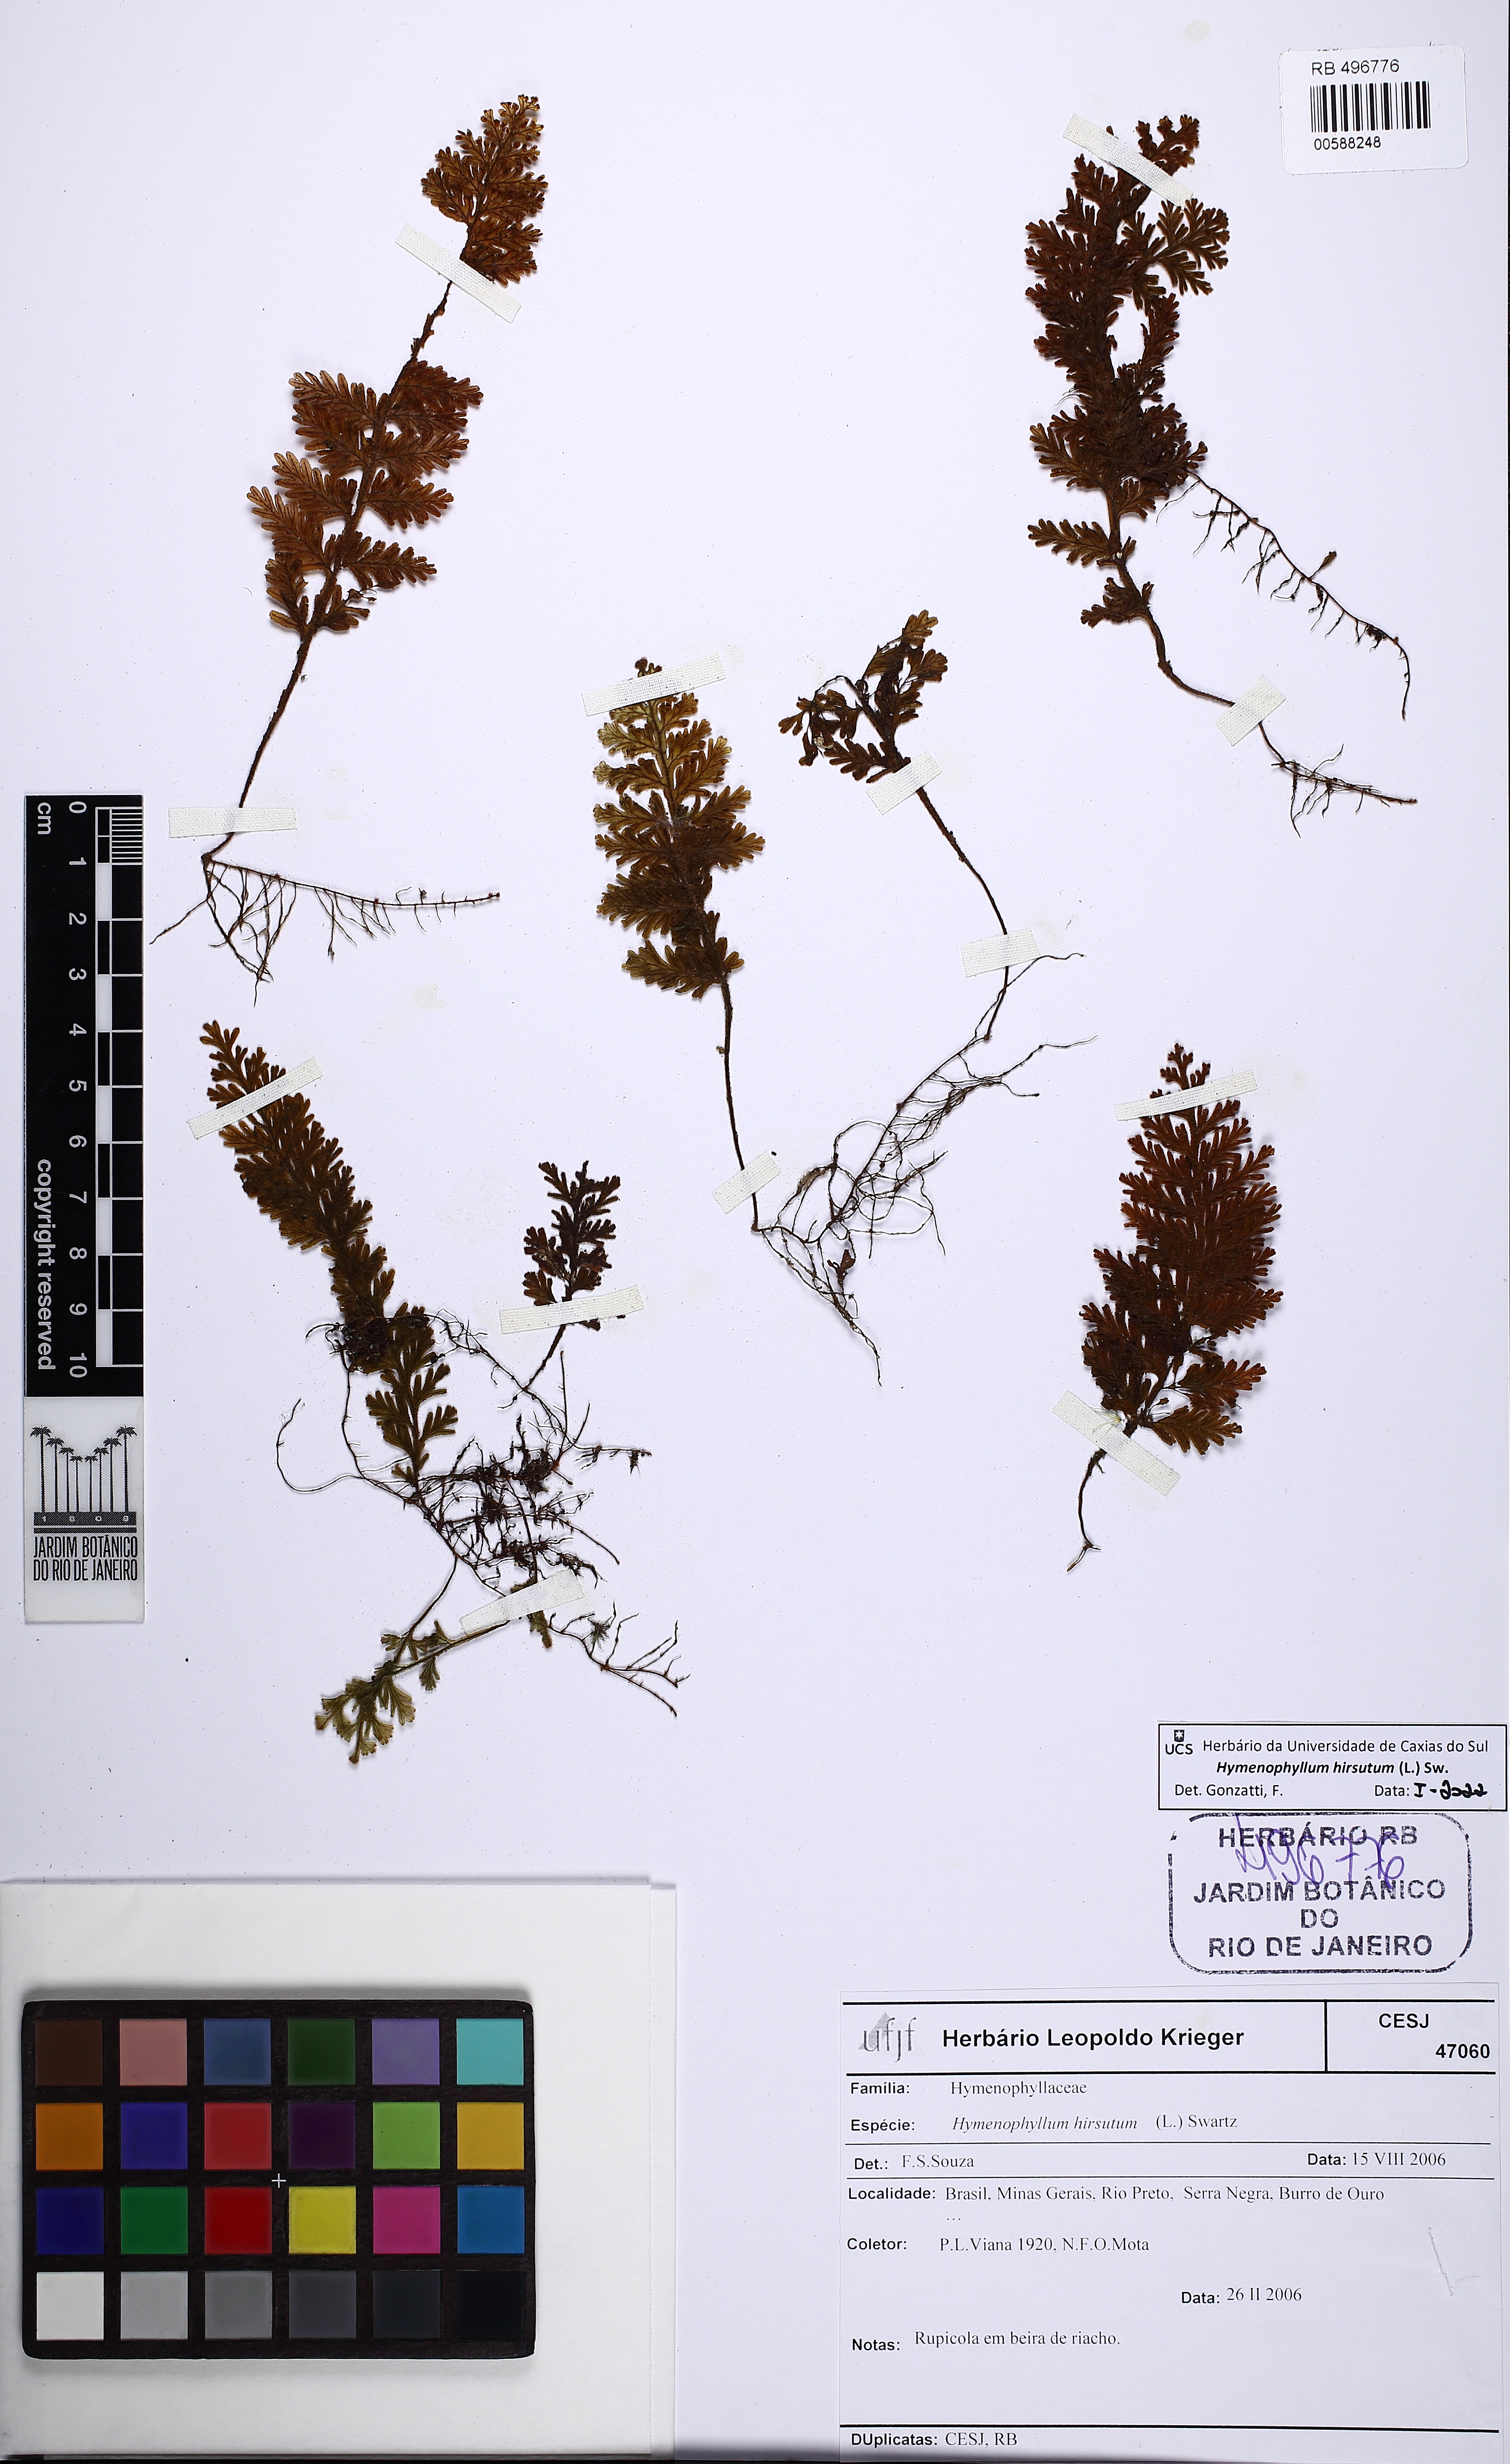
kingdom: Plantae
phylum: Tracheophyta
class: Polypodiopsida
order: Hymenophyllales
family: Hymenophyllaceae
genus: Hymenophyllum
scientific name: Hymenophyllum hirsutum
